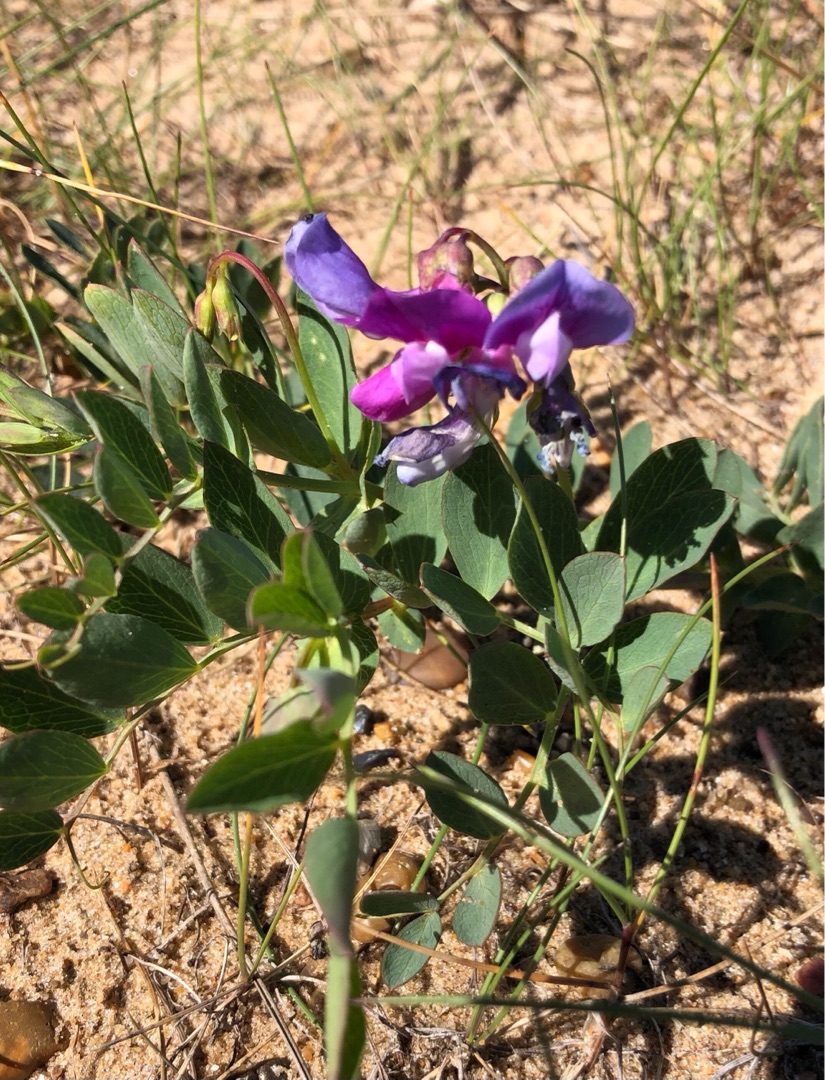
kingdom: Plantae
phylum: Tracheophyta
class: Magnoliopsida
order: Fabales
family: Fabaceae
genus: Lathyrus
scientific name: Lathyrus japonicus
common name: Strand-fladbælg
